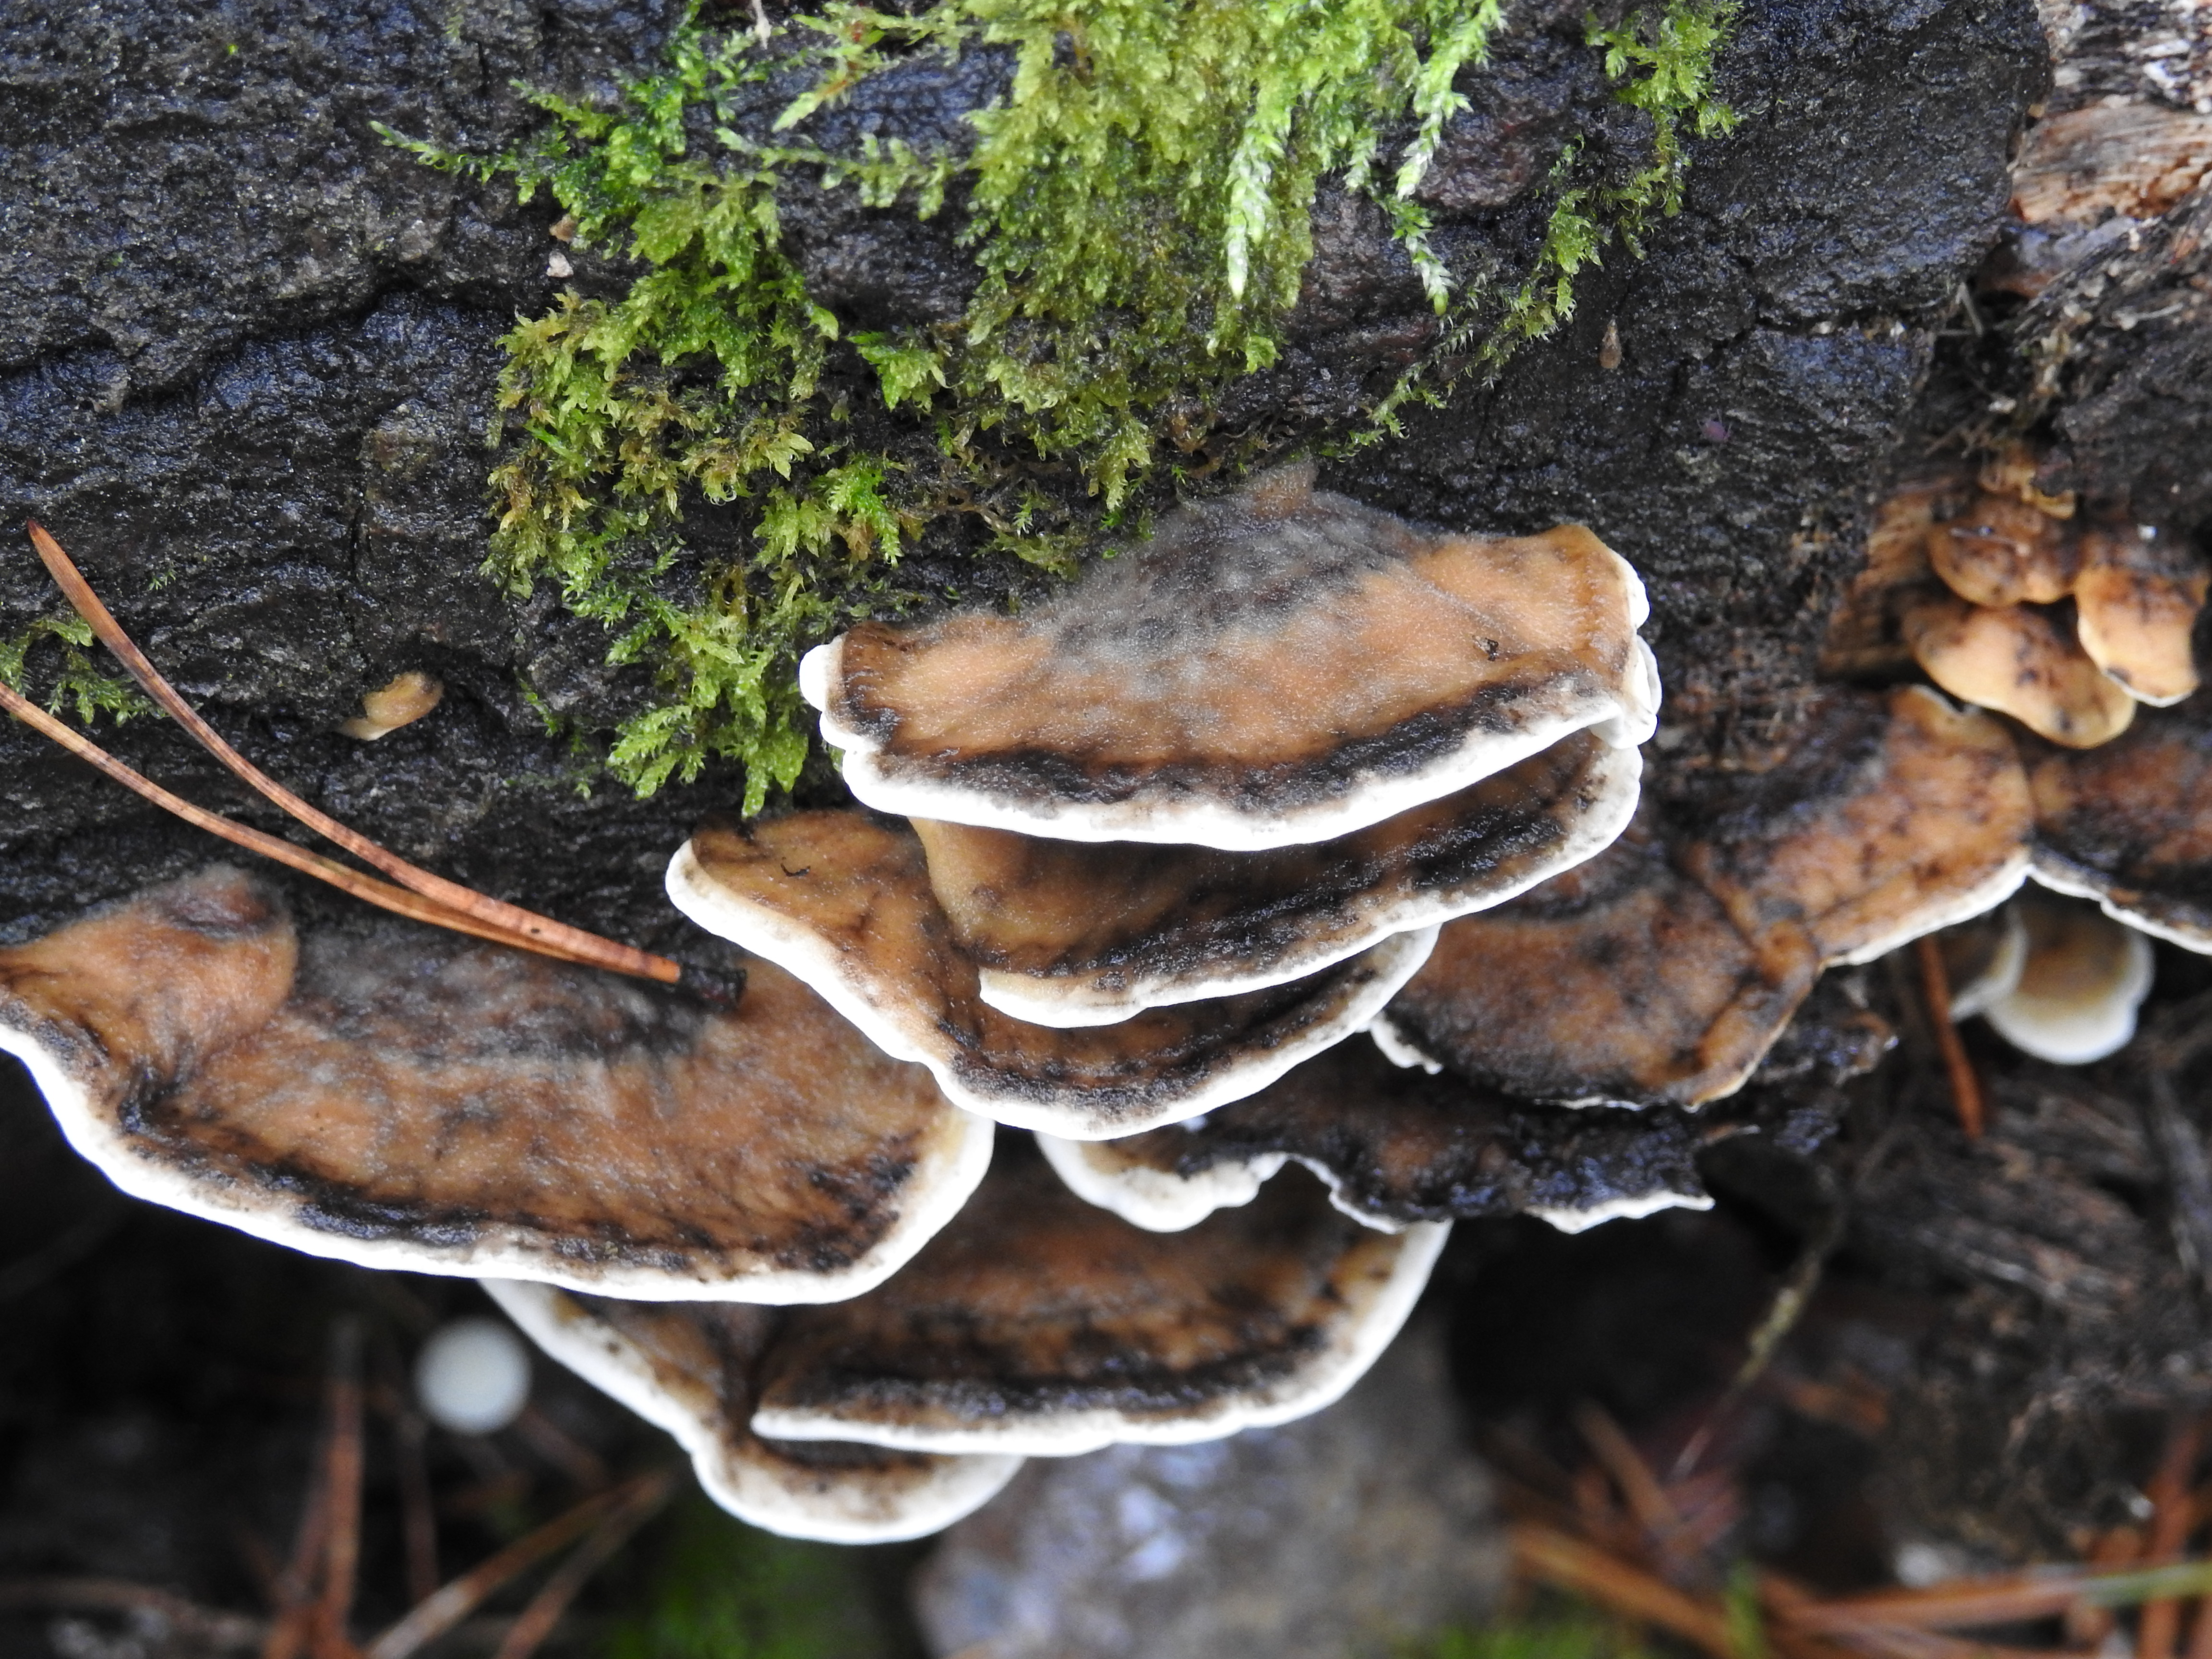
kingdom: Fungi
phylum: Basidiomycota
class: Agaricomycetes
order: Polyporales
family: Phanerochaetaceae
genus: Bjerkandera
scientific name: Bjerkandera adusta
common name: Smoky bracket
